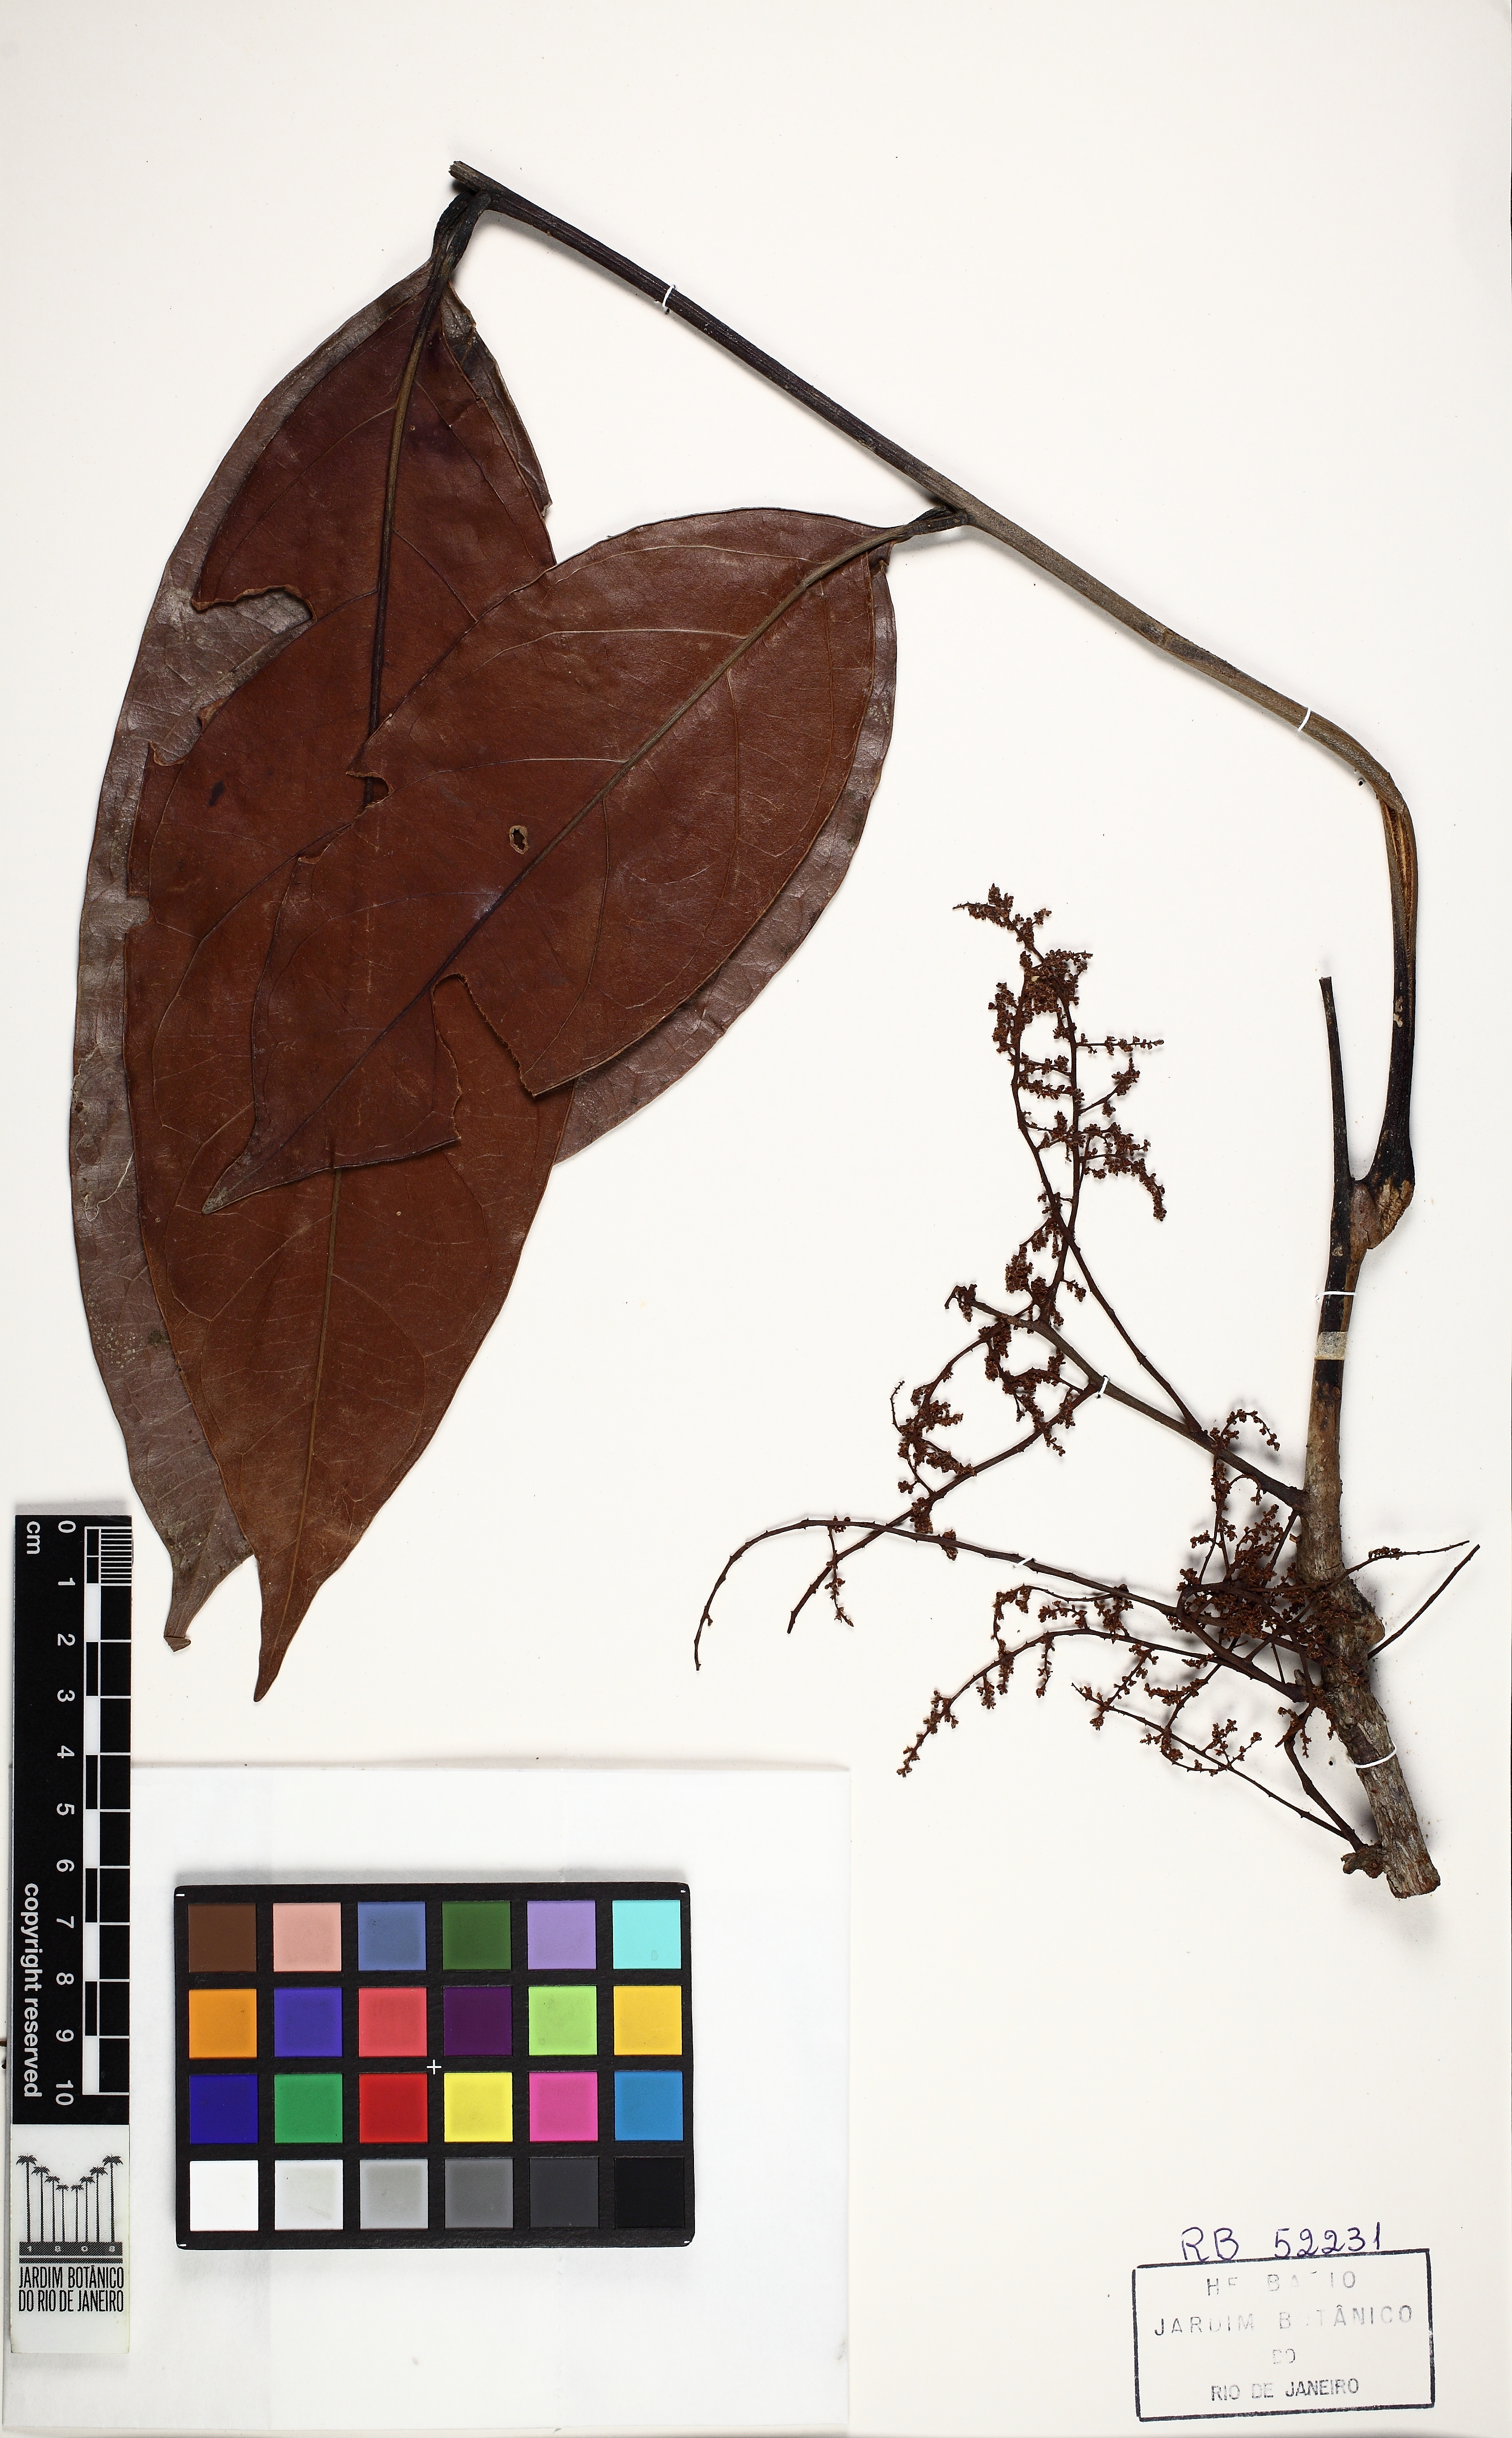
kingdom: Plantae
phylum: Tracheophyta
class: Magnoliopsida
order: Proteales
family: Sabiaceae
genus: Ophiocaryon
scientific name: Ophiocaryon paradoxum
